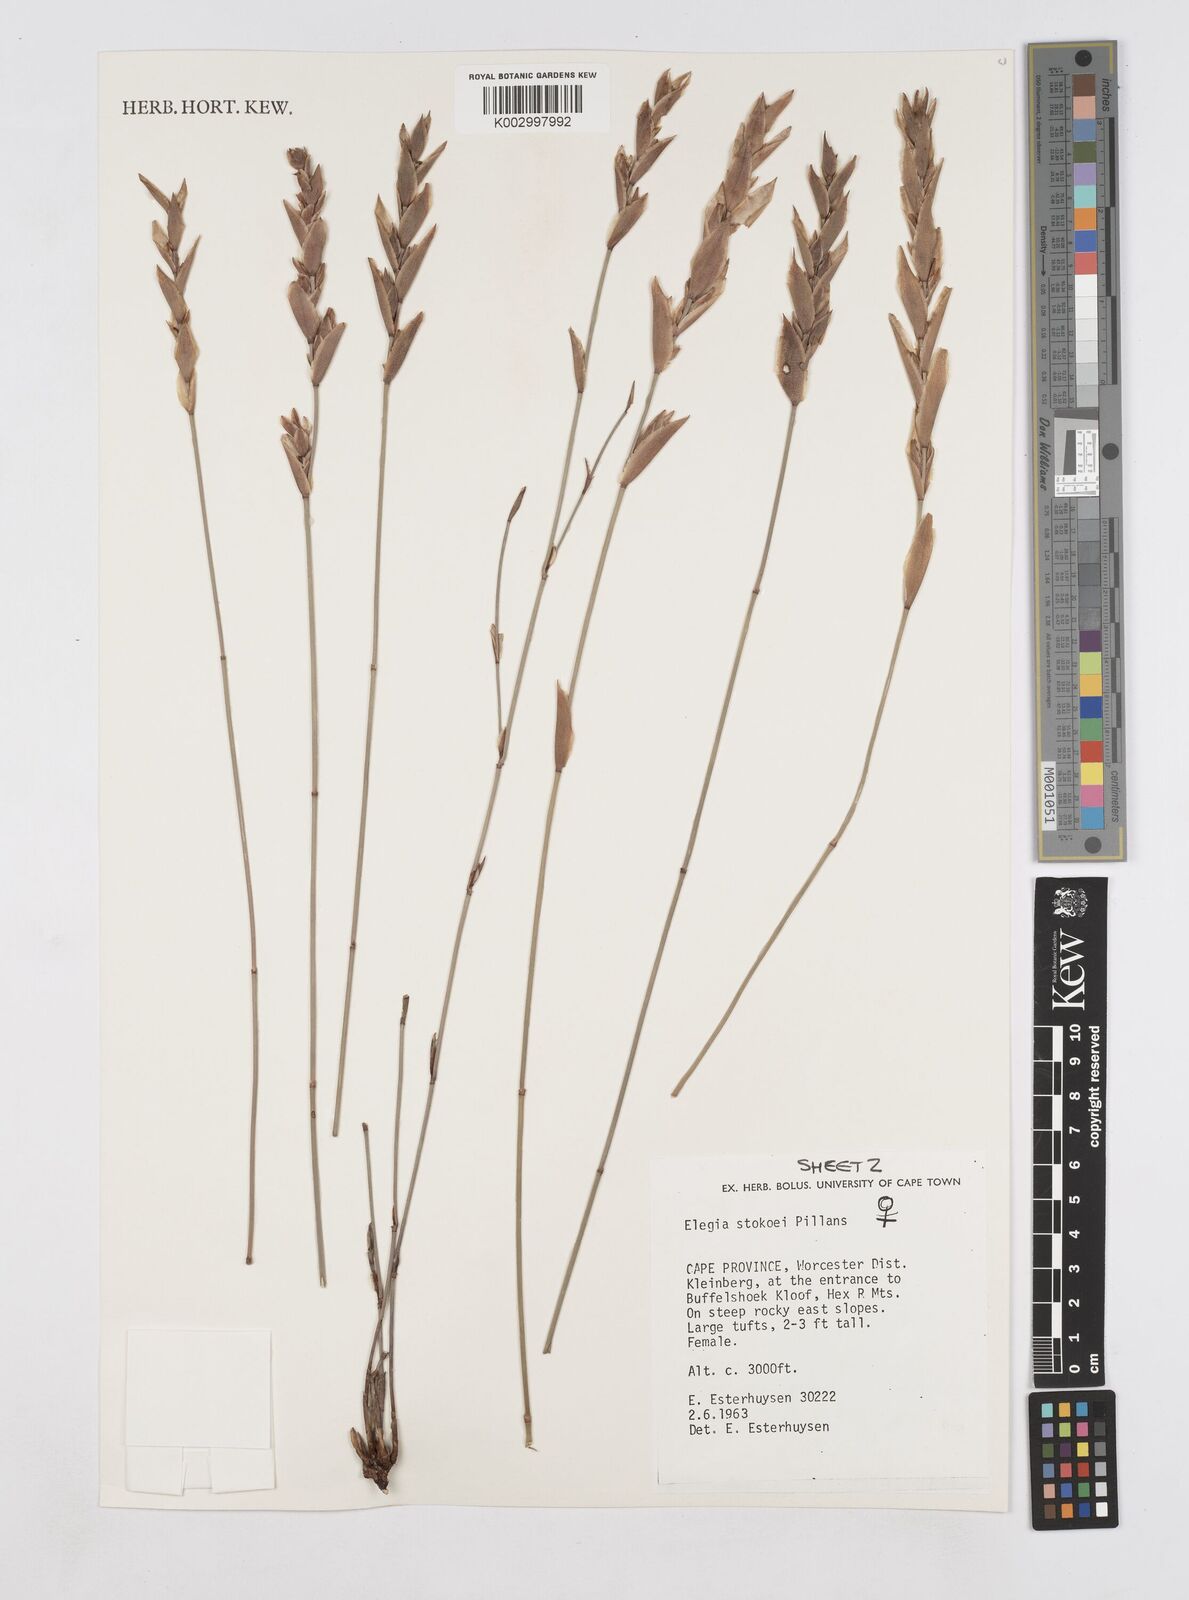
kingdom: Plantae
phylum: Tracheophyta
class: Liliopsida
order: Poales
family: Restionaceae
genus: Elegia
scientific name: Elegia stokoei
